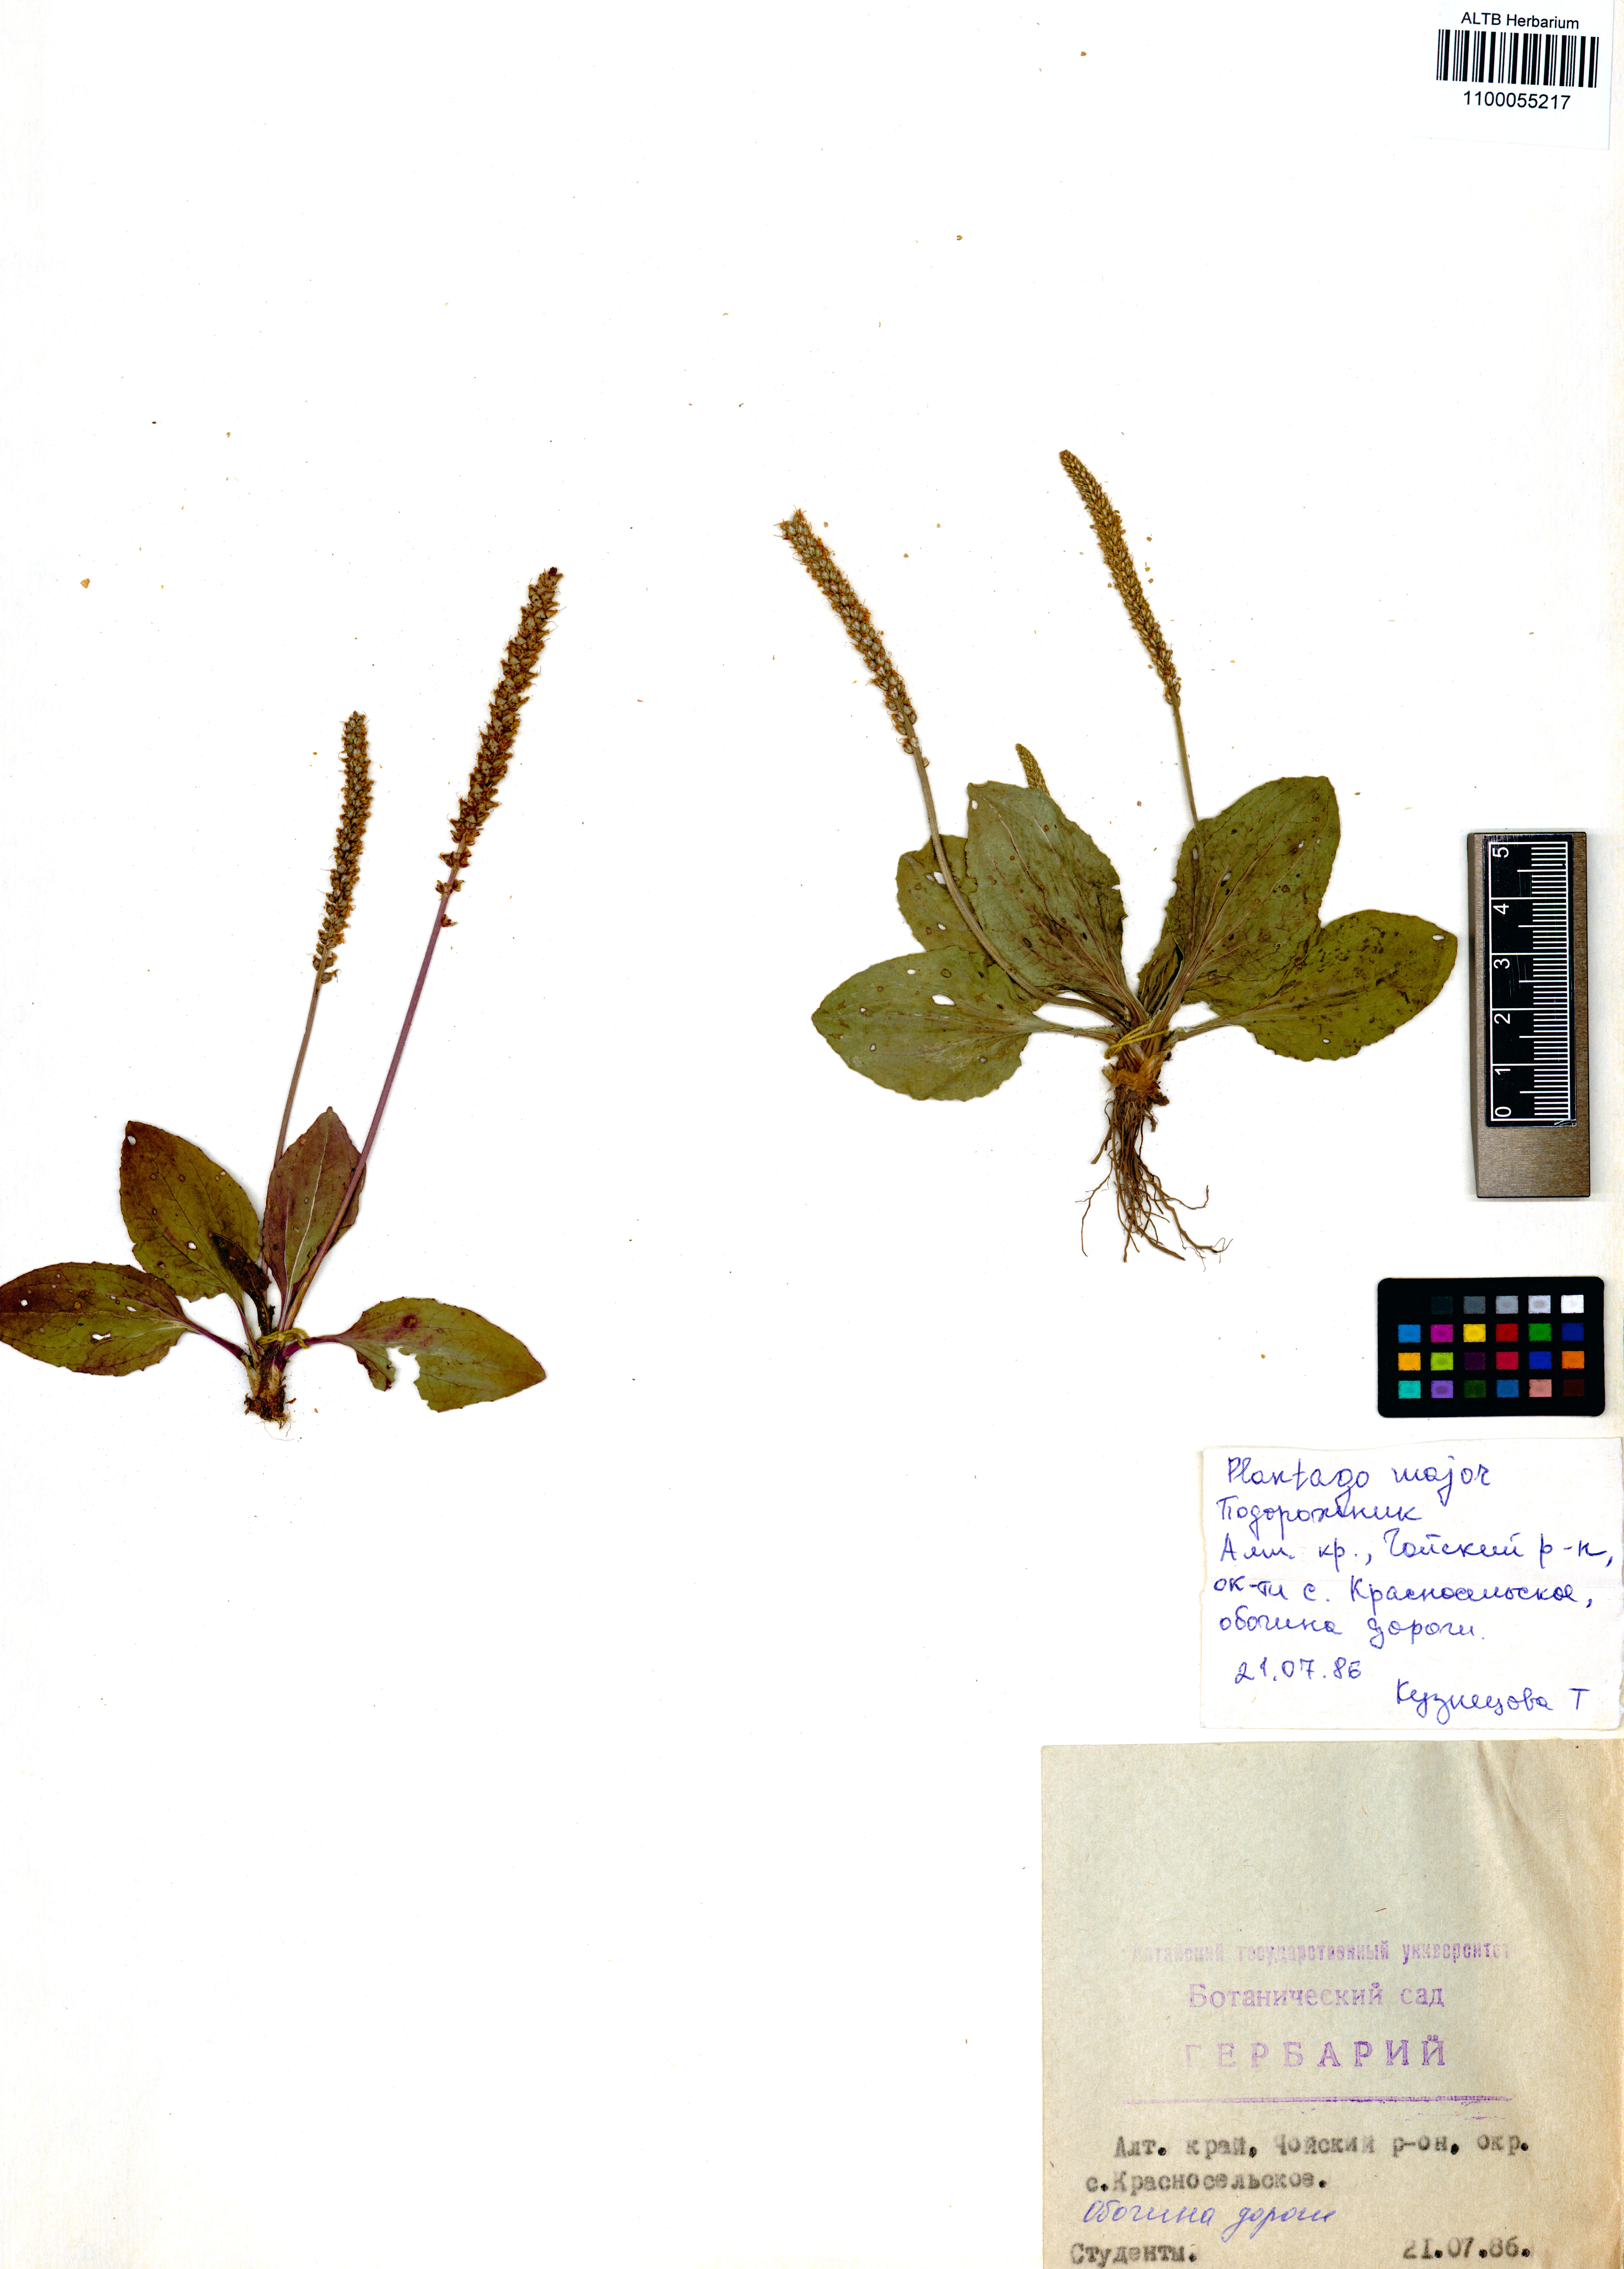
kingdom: Plantae
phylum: Tracheophyta
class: Magnoliopsida
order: Lamiales
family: Plantaginaceae
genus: Plantago
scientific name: Plantago major
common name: Common plantain
